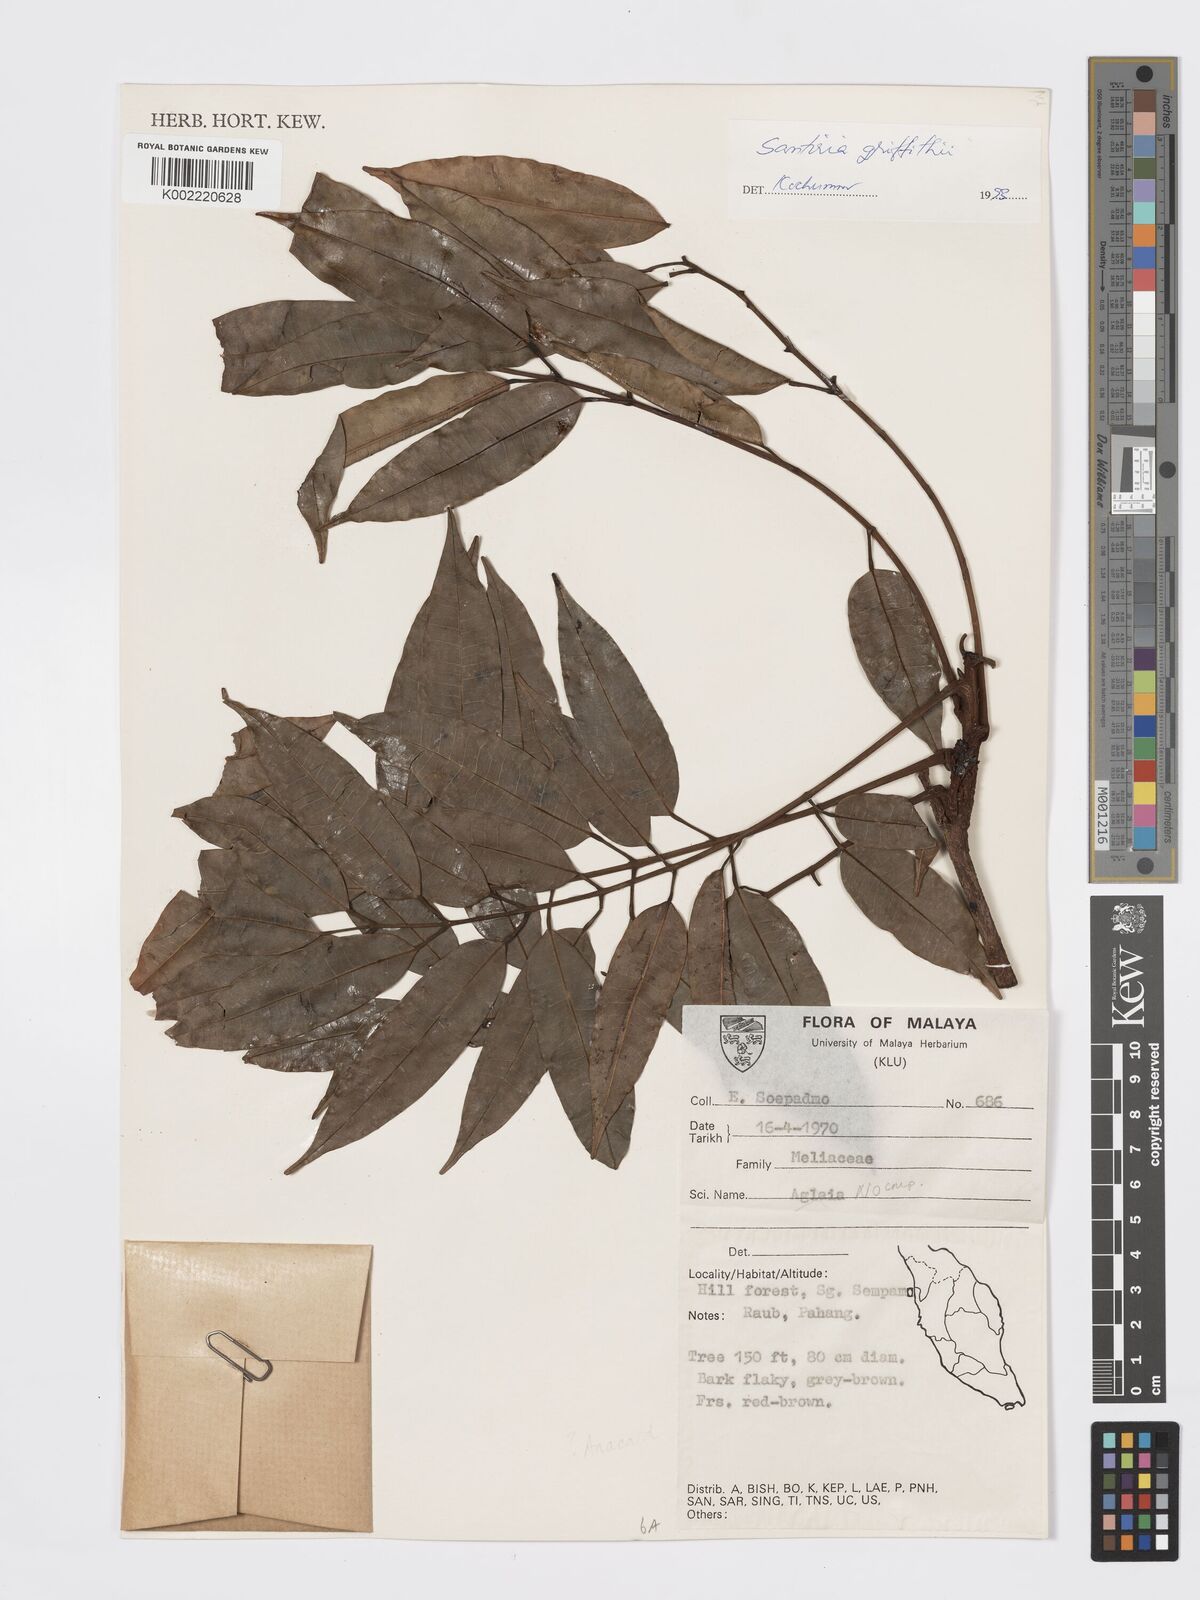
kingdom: Plantae
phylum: Tracheophyta
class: Magnoliopsida
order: Sapindales
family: Burseraceae
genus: Santiria
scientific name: Santiria griffithii
